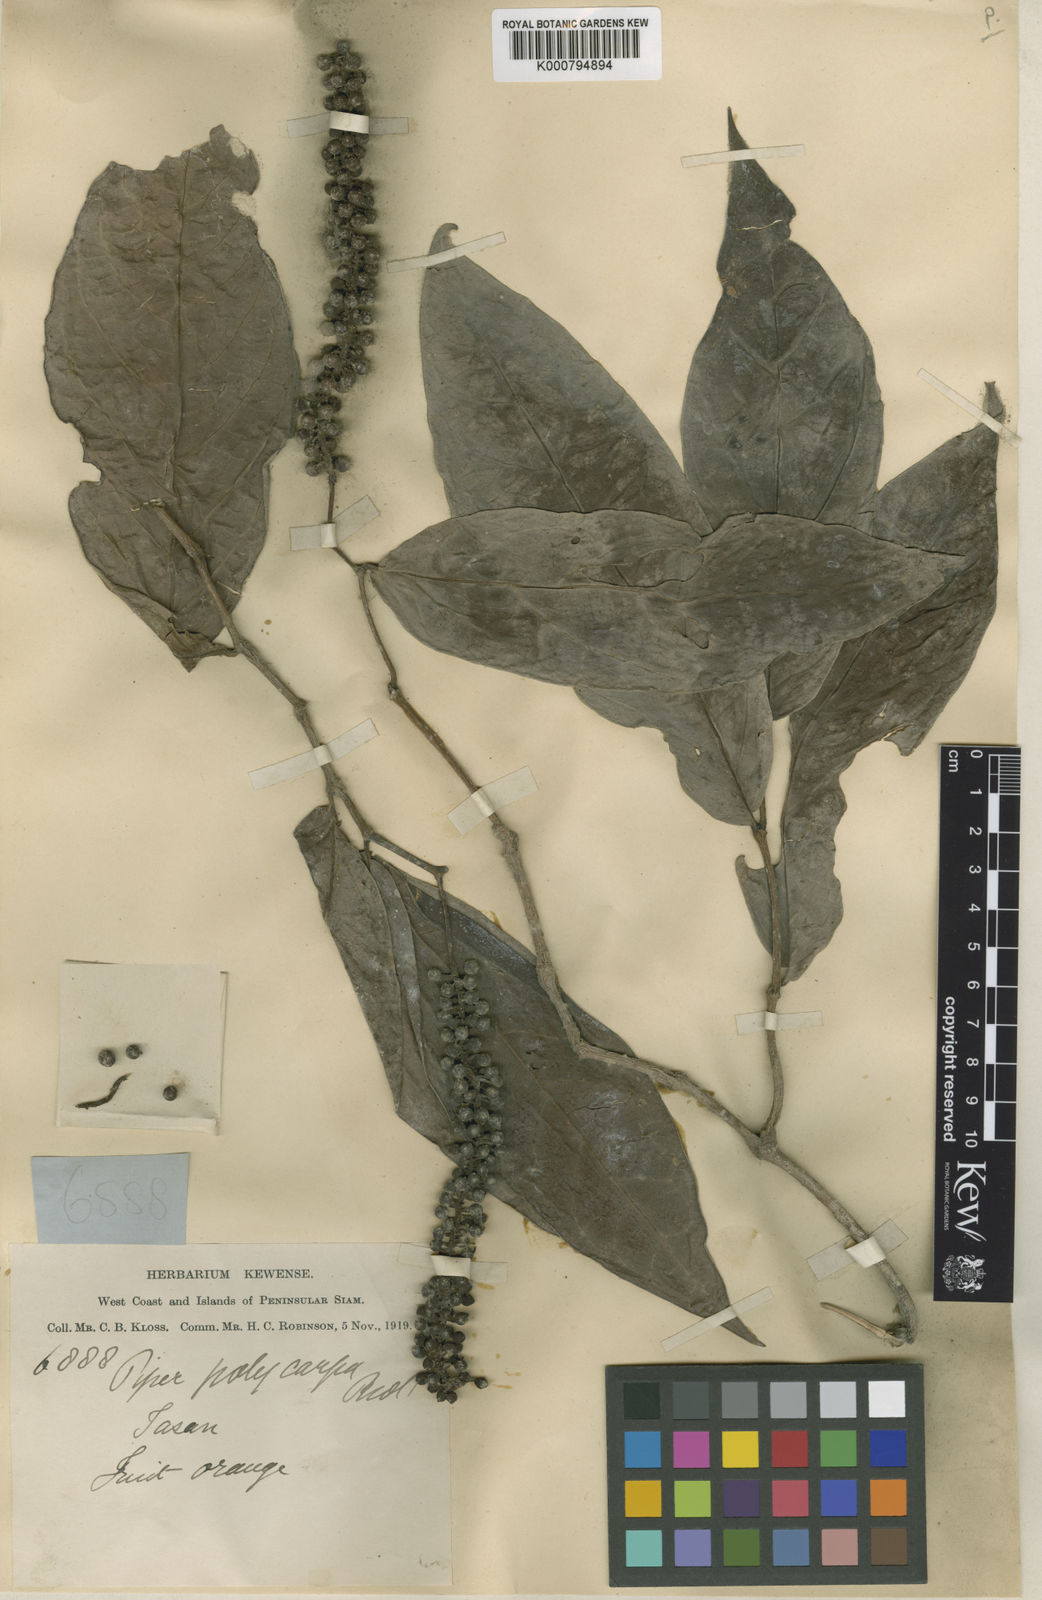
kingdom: Plantae
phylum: Tracheophyta
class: Magnoliopsida
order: Piperales
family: Piperaceae
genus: Piper
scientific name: Piper venosum
